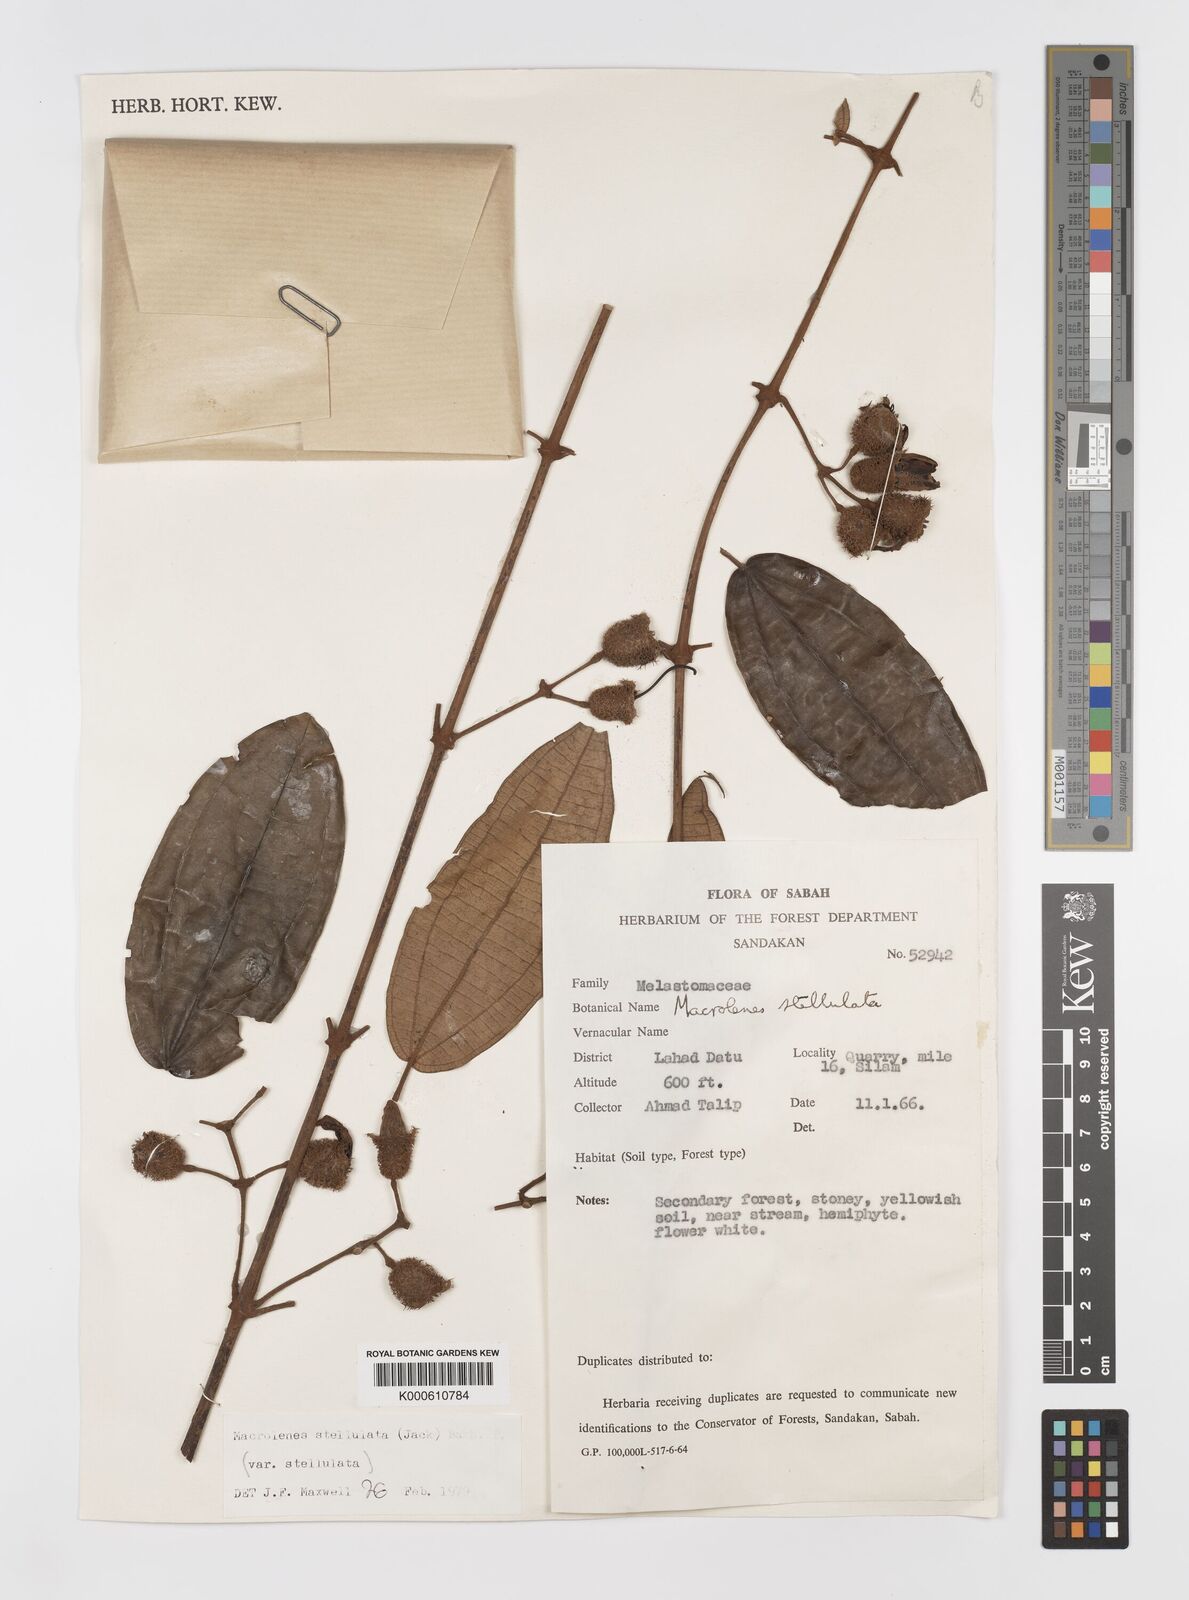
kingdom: Plantae
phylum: Tracheophyta
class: Magnoliopsida
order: Myrtales
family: Melastomataceae
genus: Macrolenes
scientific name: Macrolenes
